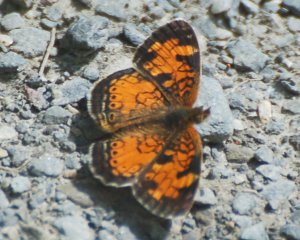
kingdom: Animalia
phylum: Arthropoda
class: Insecta
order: Lepidoptera
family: Nymphalidae
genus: Phyciodes
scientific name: Phyciodes tharos
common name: Northern Crescent
